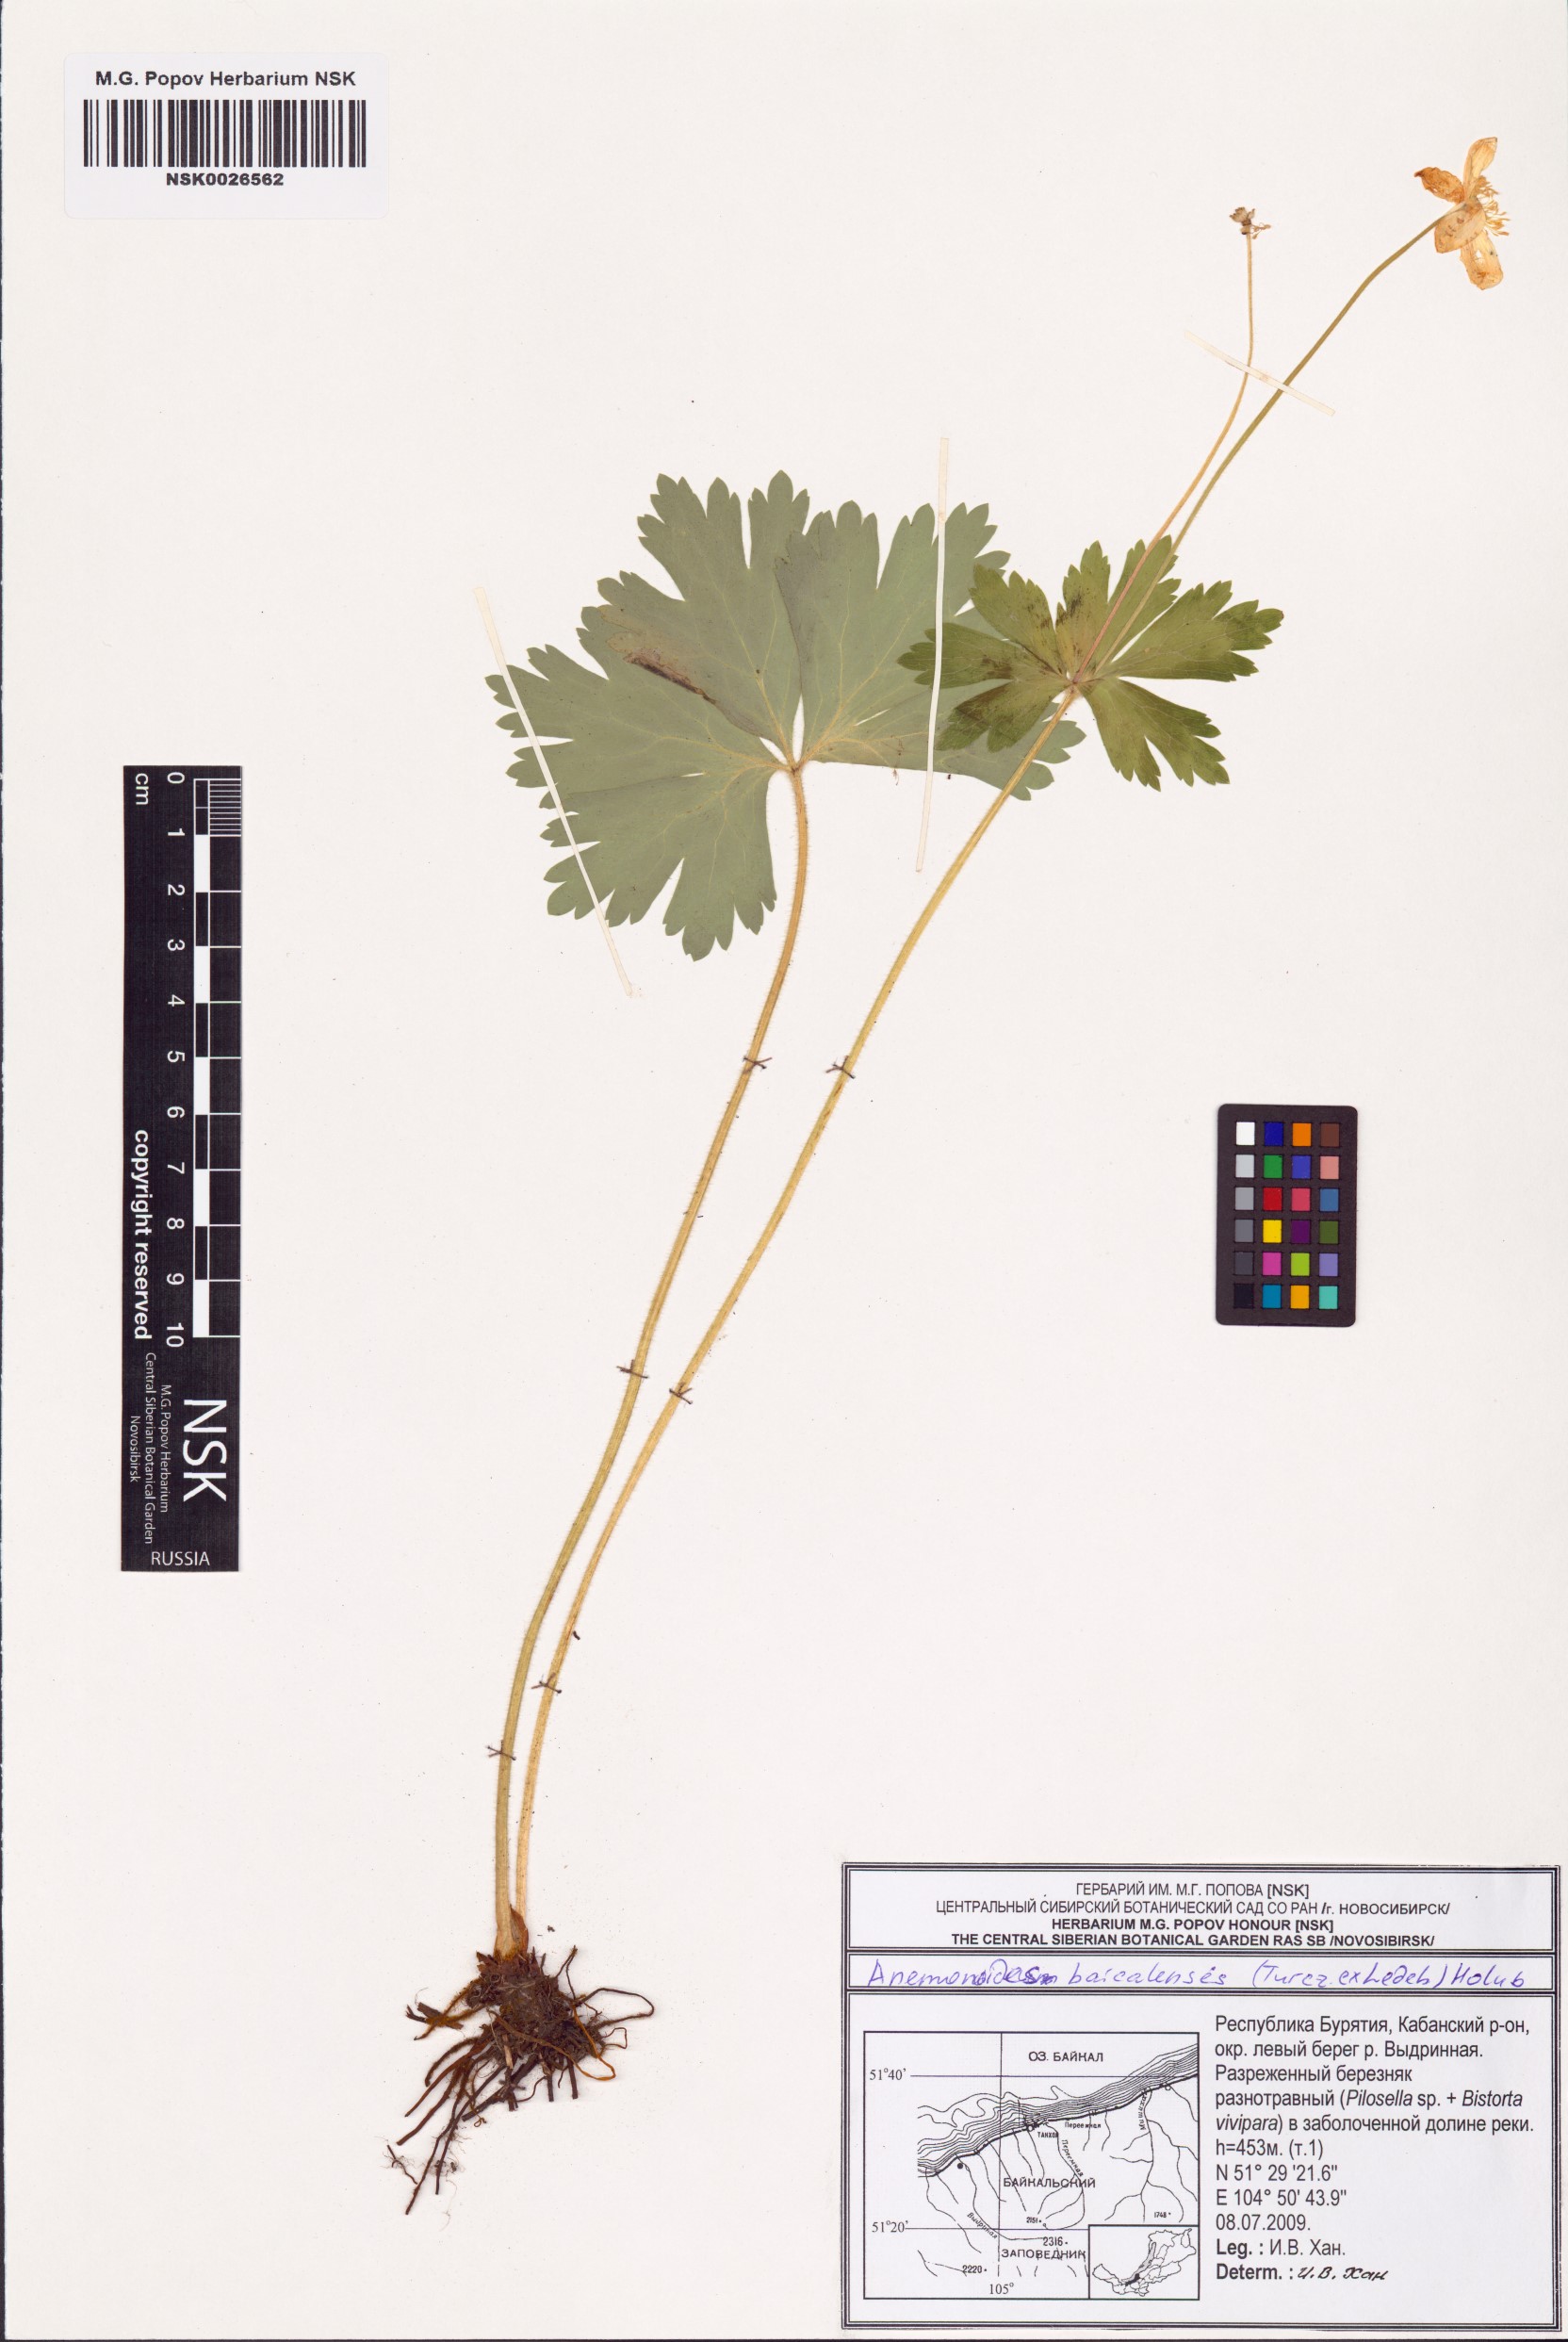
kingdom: Plantae
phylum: Tracheophyta
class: Magnoliopsida
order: Ranunculales
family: Ranunculaceae
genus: Anemonastrum
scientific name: Anemonastrum baicalense
